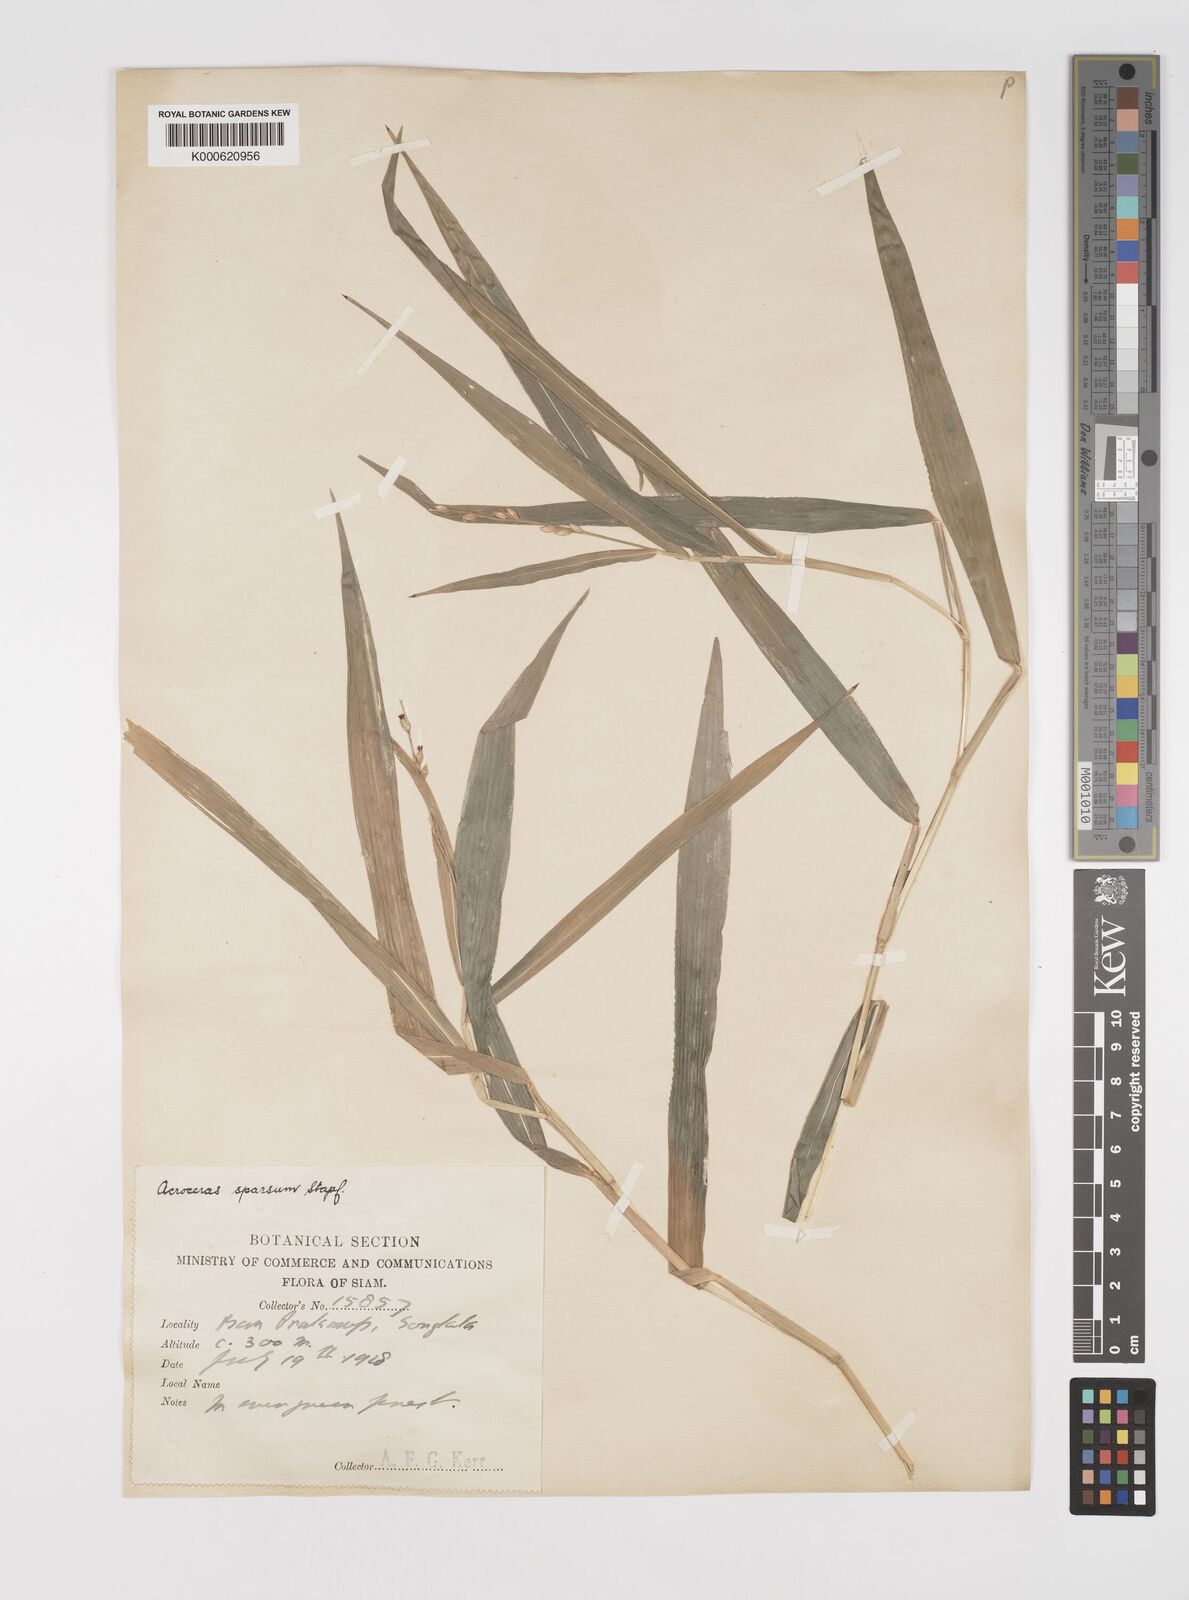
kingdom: Plantae
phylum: Tracheophyta
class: Liliopsida
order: Poales
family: Poaceae
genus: Acroceras
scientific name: Acroceras
